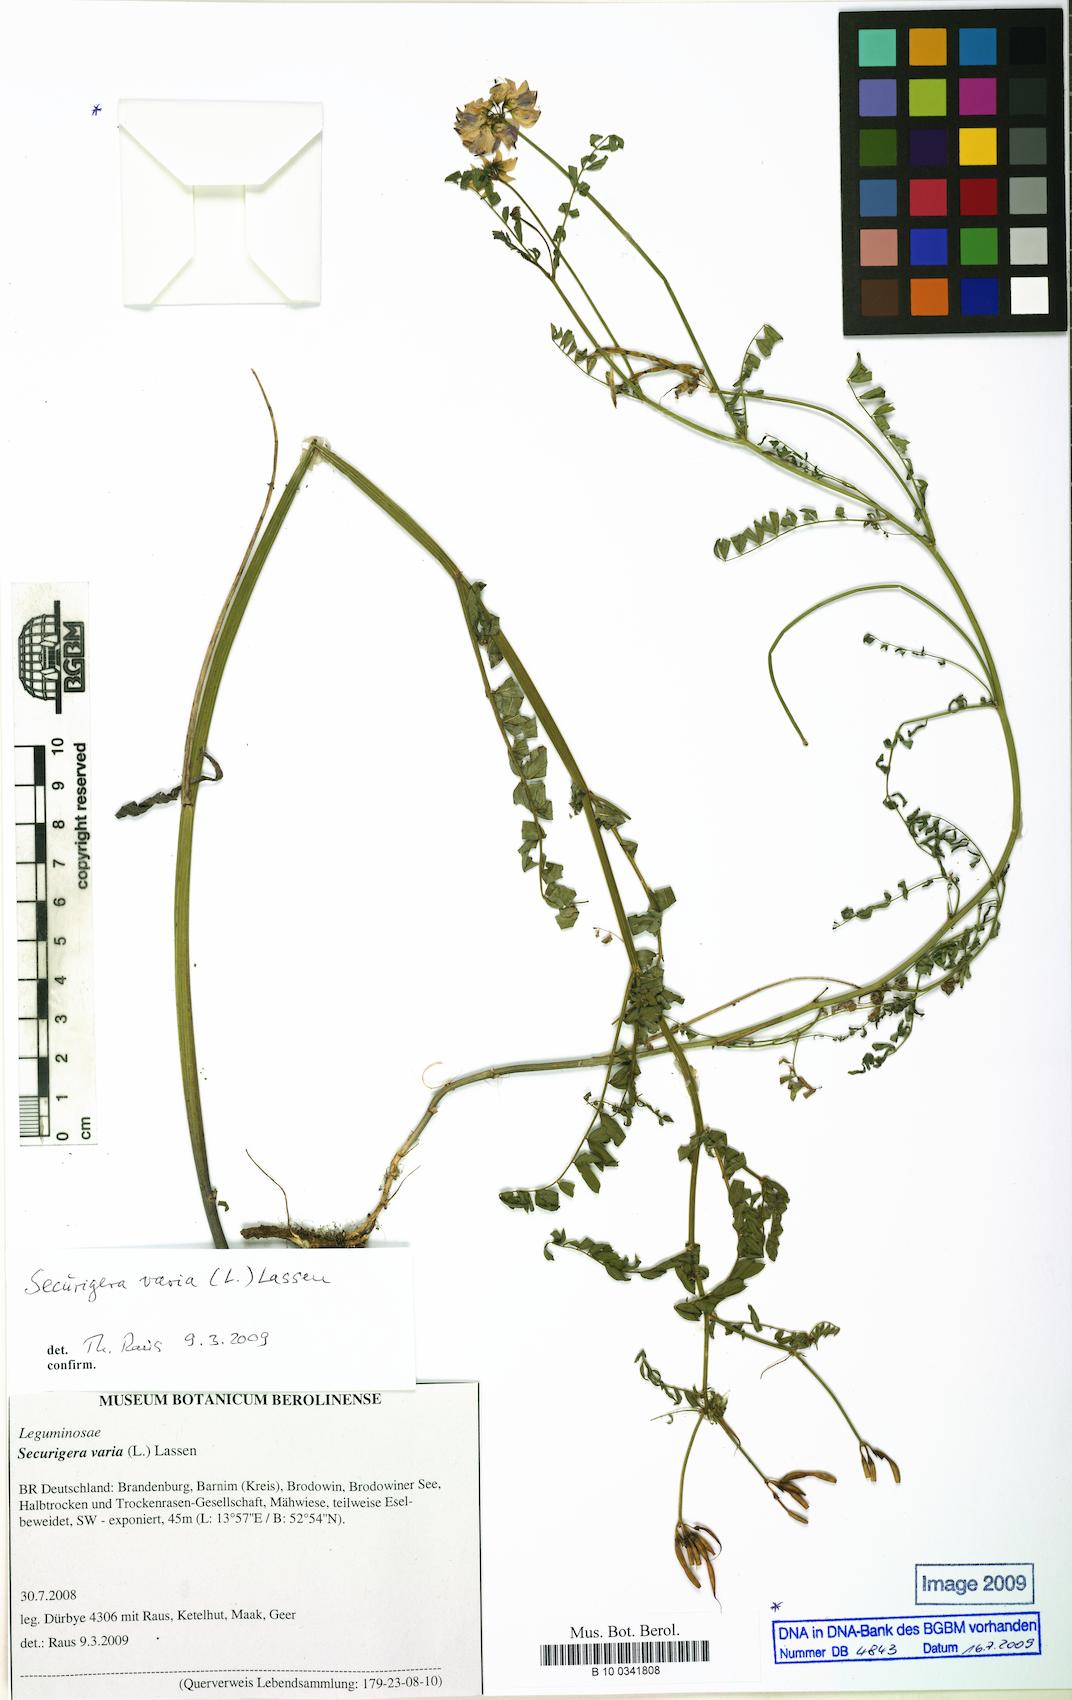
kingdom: Plantae
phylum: Tracheophyta
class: Magnoliopsida
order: Fabales
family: Fabaceae
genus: Coronilla
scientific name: Coronilla varia
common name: Crownvetch
